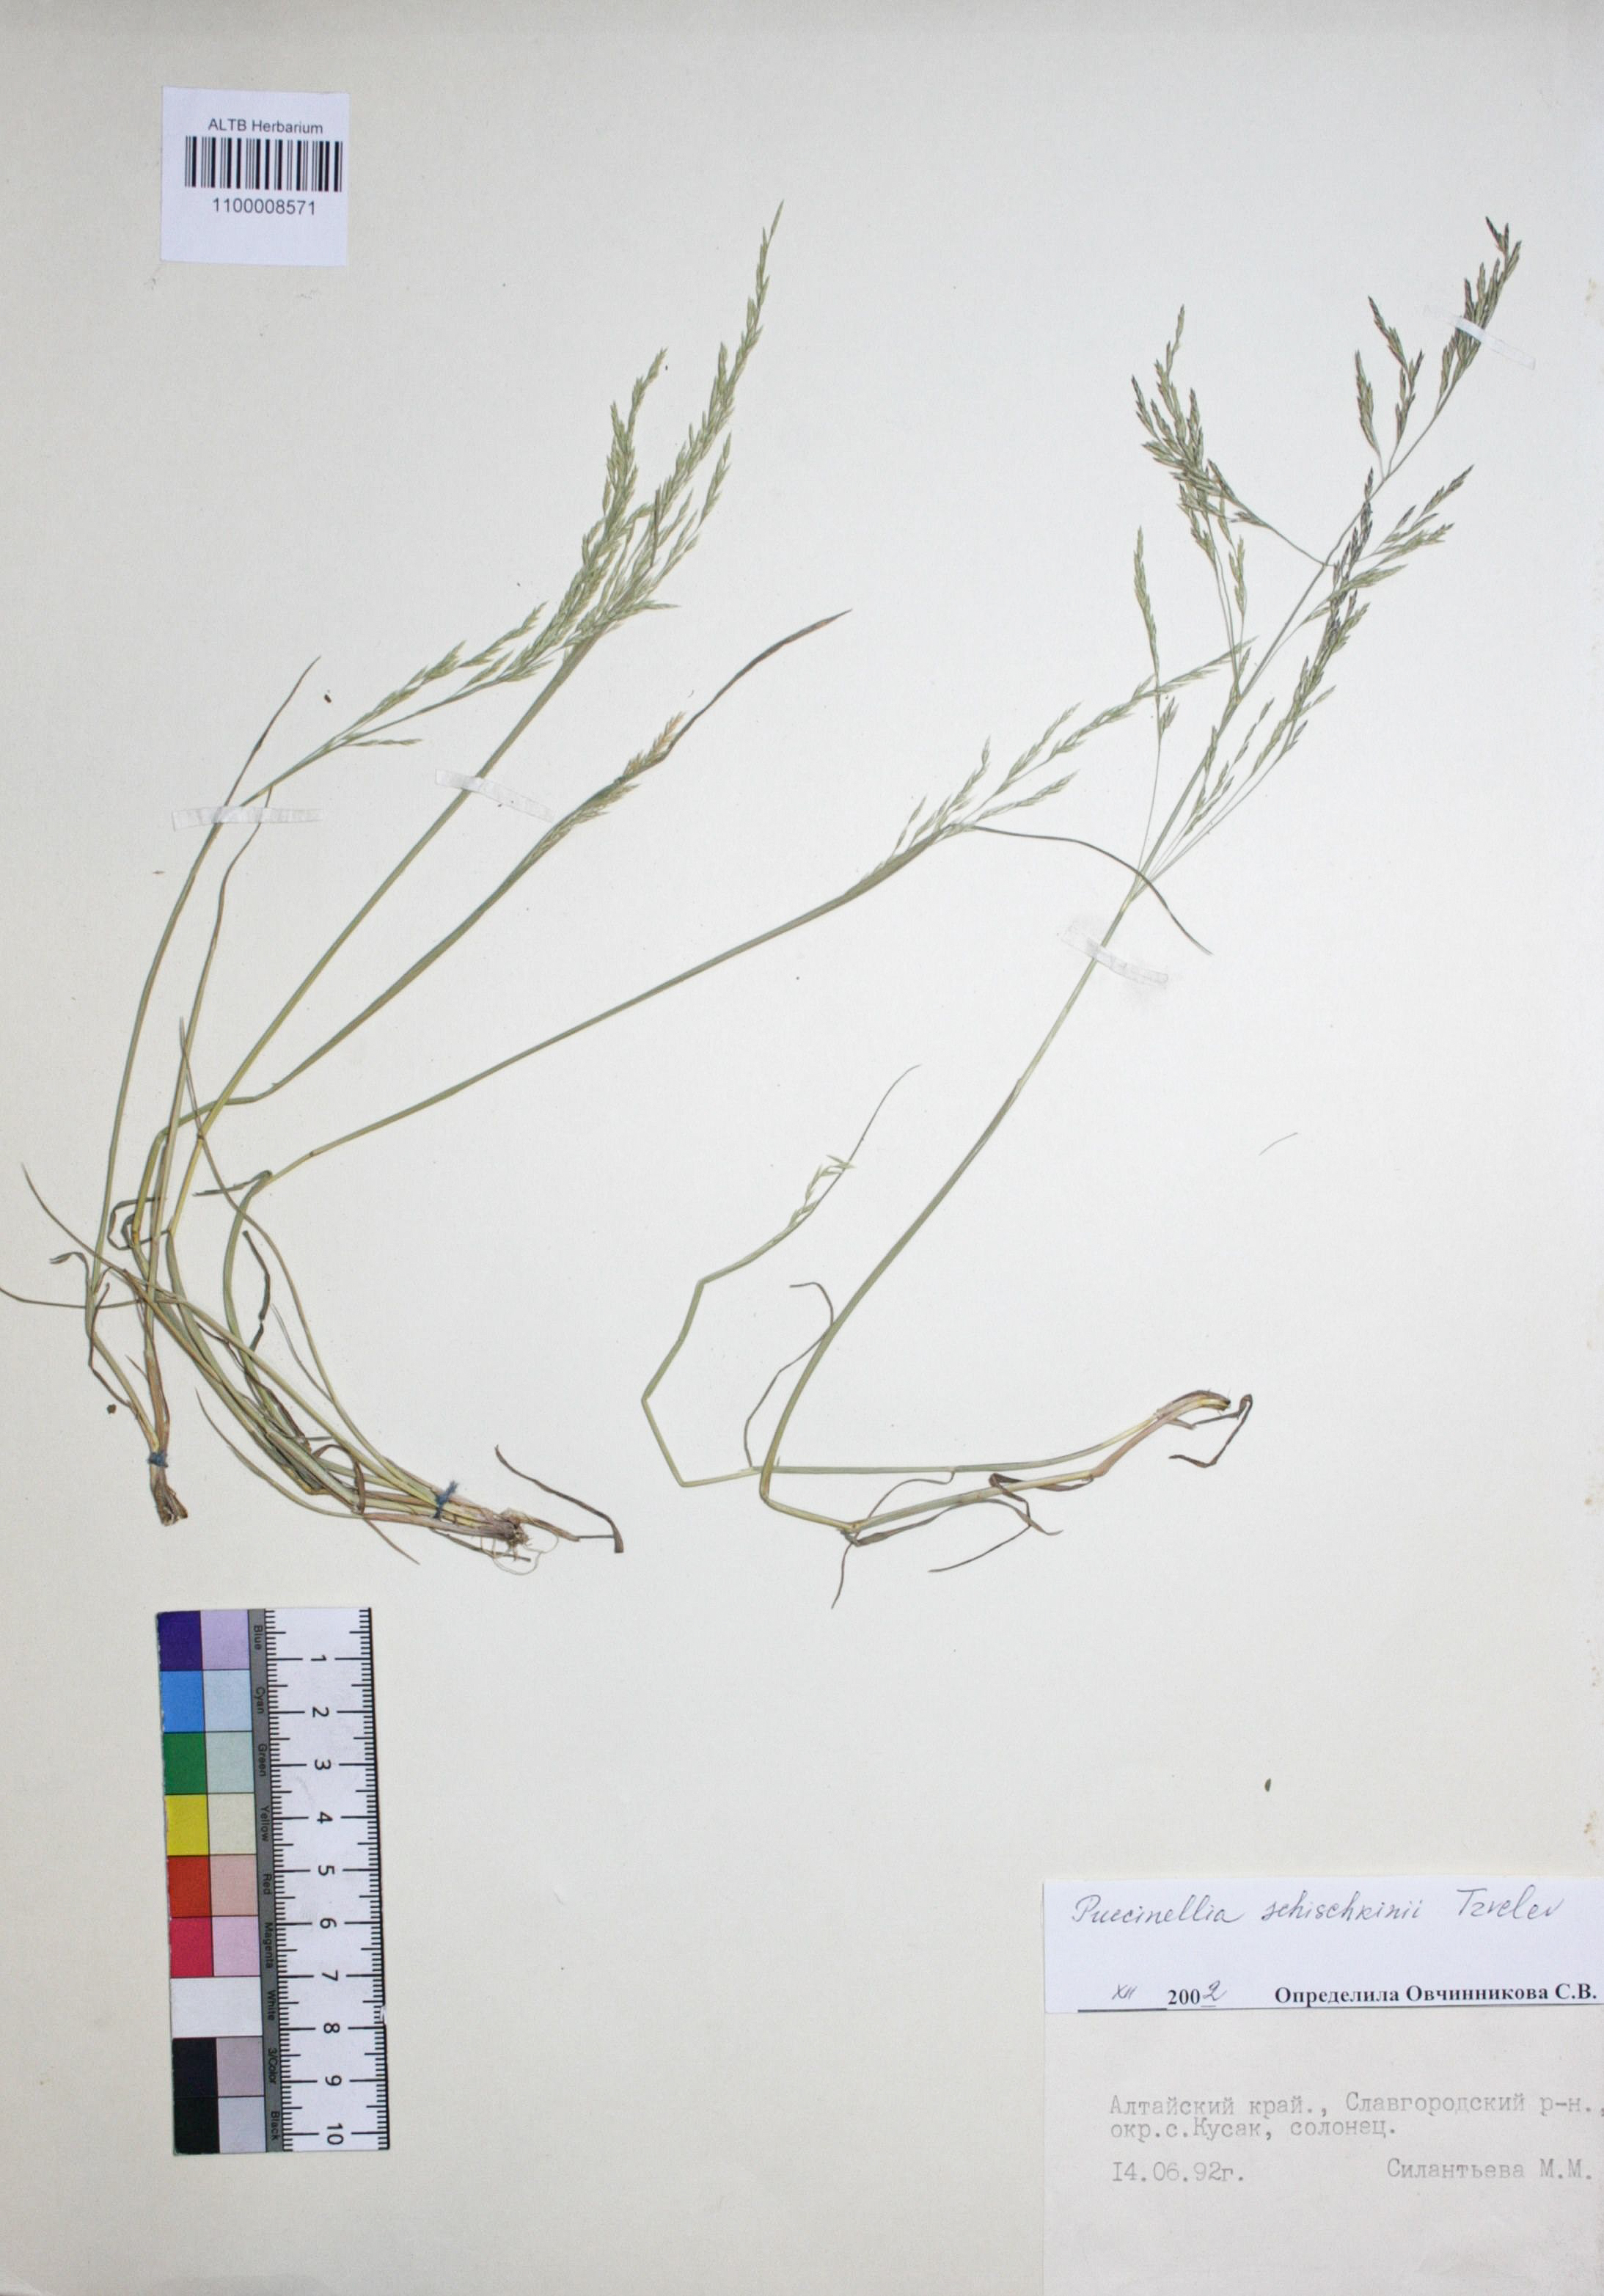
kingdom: Plantae
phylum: Tracheophyta
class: Liliopsida
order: Poales
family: Poaceae
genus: Puccinellia
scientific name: Puccinellia schischkinii
